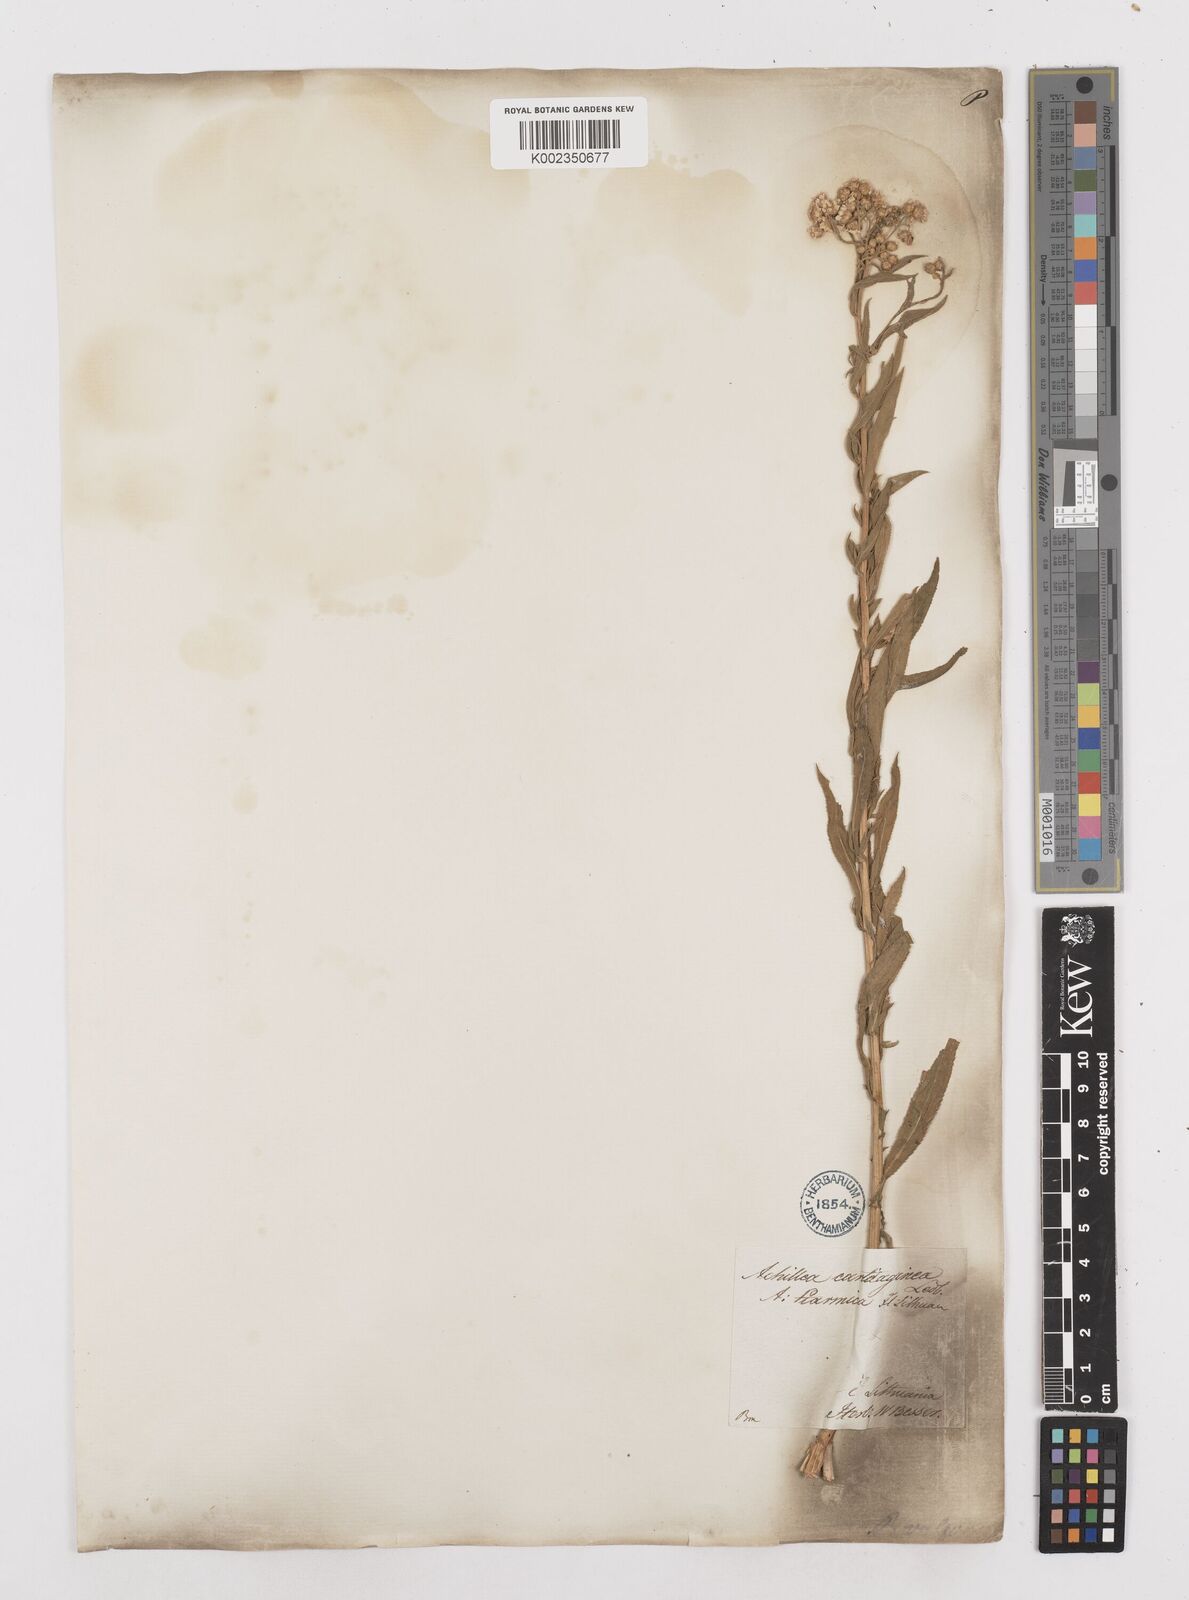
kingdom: Plantae
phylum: Tracheophyta
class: Magnoliopsida
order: Asterales
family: Asteraceae
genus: Achillea
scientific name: Achillea salicifolia
